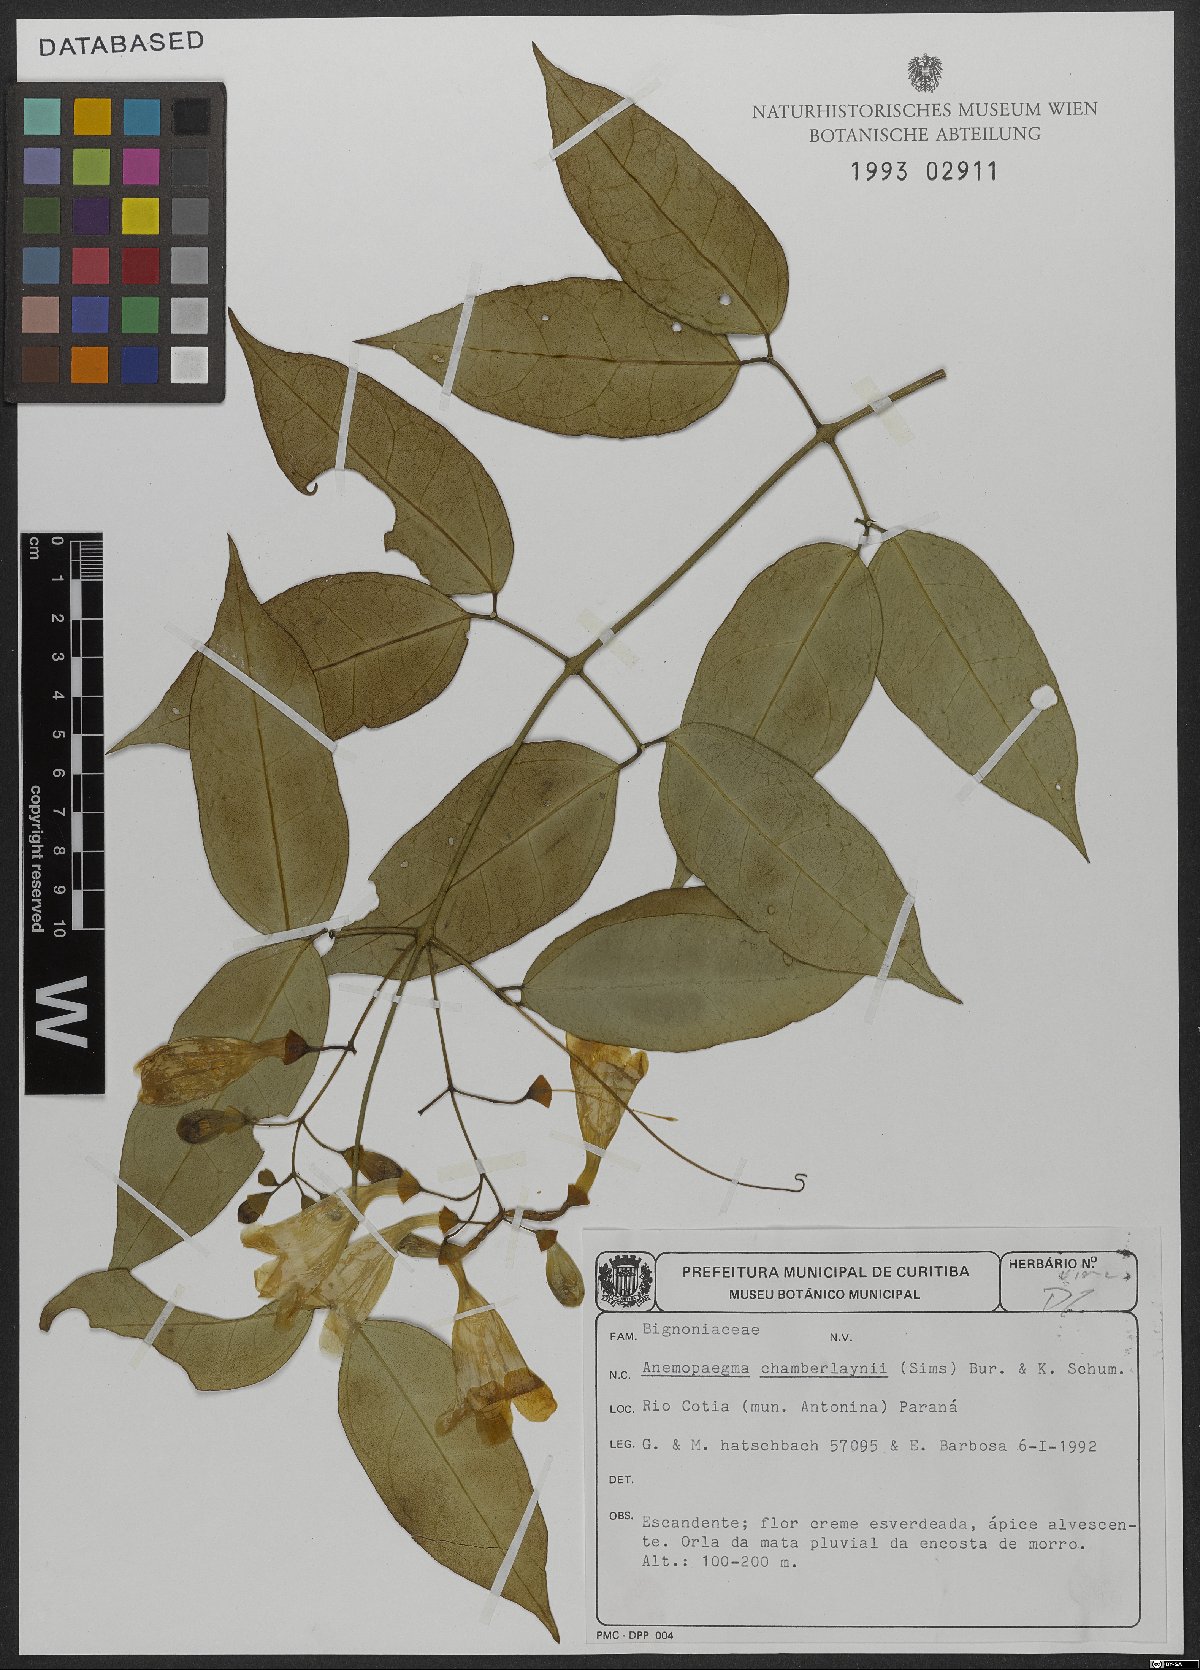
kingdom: Plantae
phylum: Tracheophyta
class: Magnoliopsida
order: Lamiales
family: Bignoniaceae
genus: Anemopaegma
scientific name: Anemopaegma chamberlaynii
